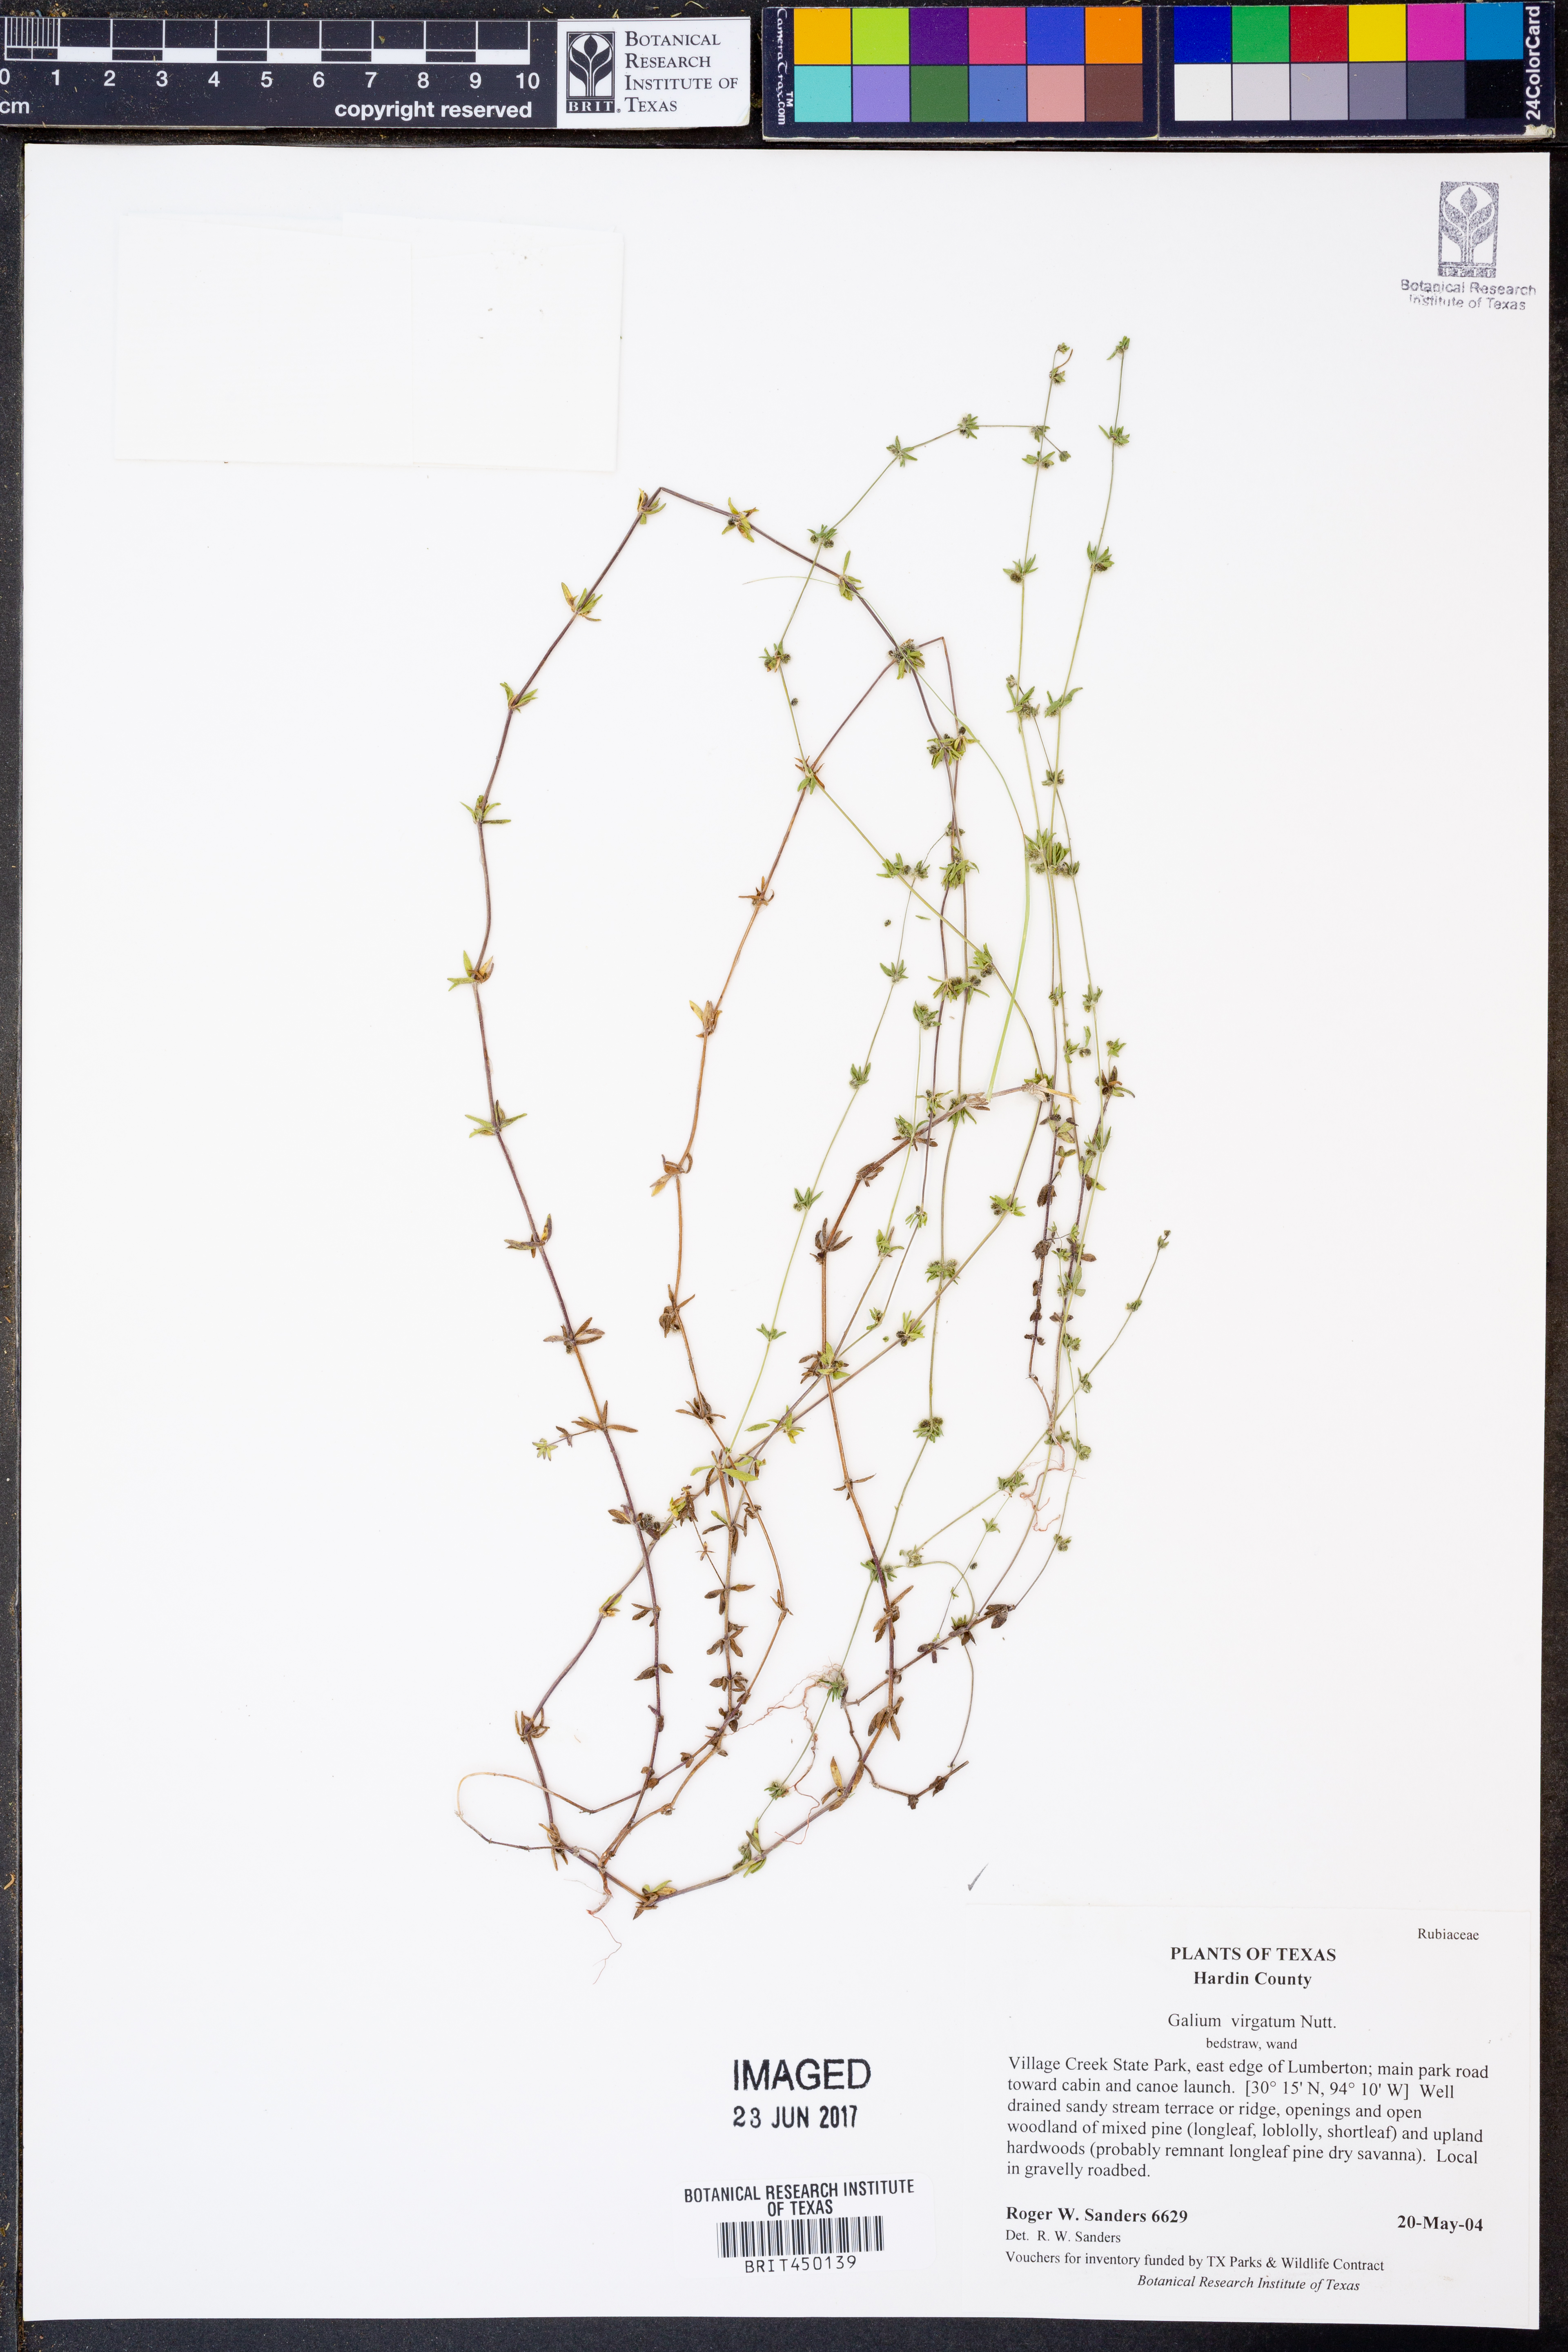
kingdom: Plantae
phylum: Tracheophyta
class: Magnoliopsida
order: Gentianales
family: Rubiaceae
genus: Galium
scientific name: Galium virgatum
